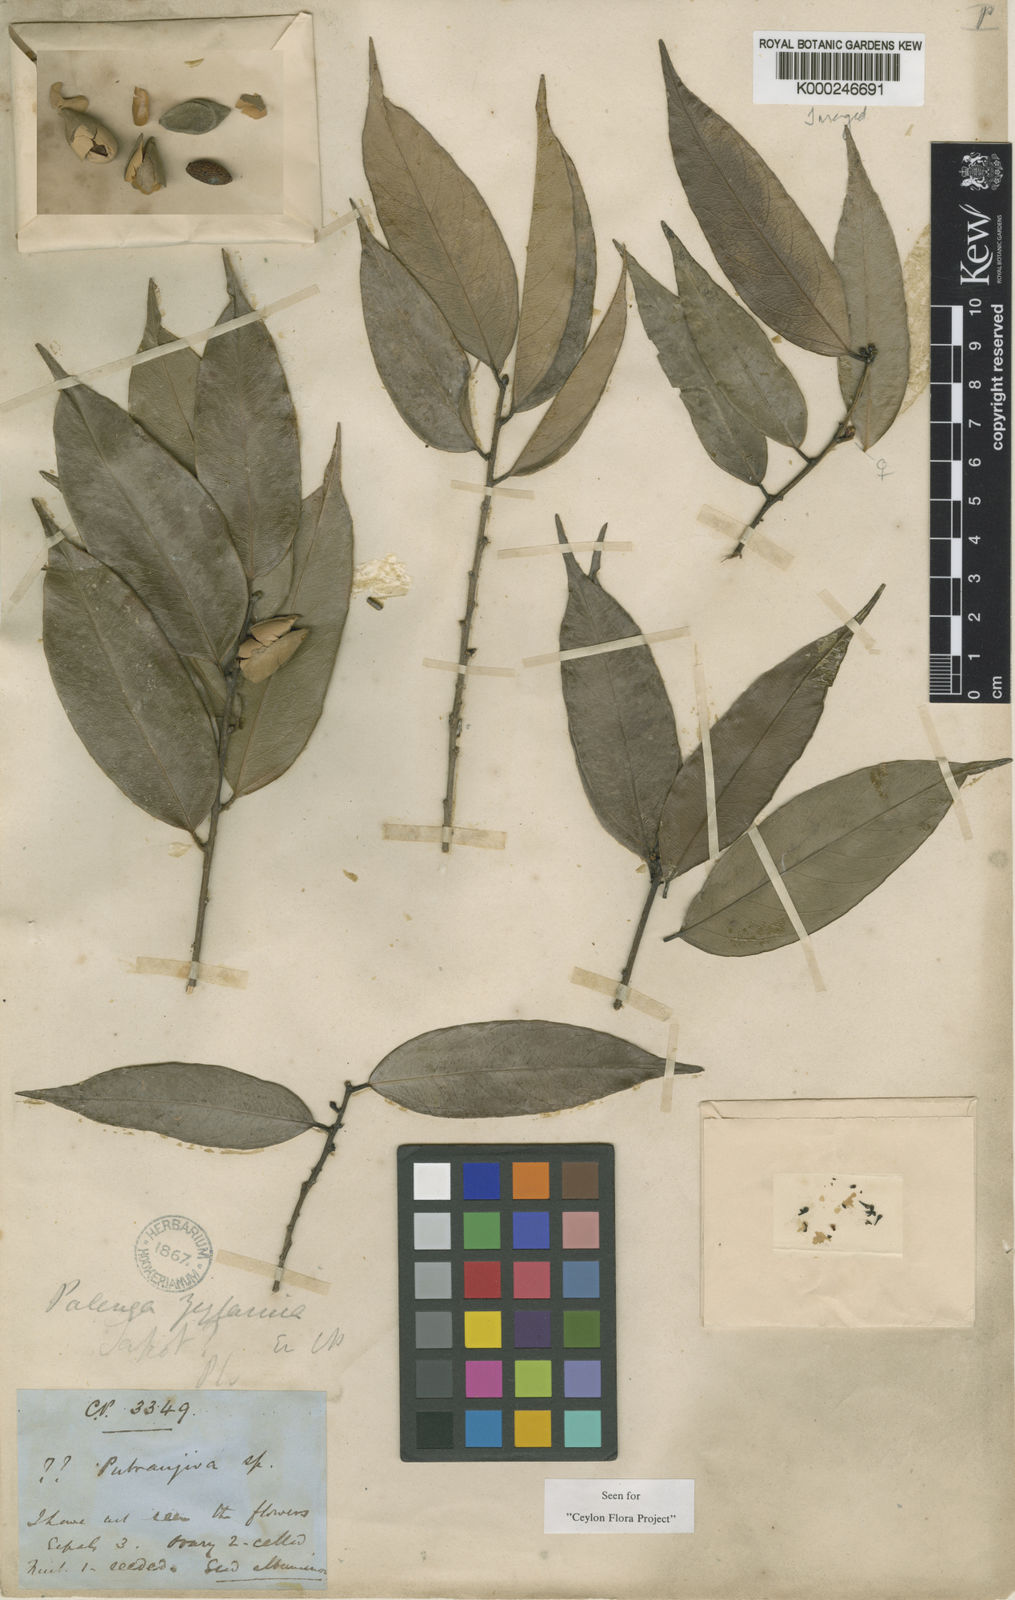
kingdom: Plantae
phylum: Tracheophyta
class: Magnoliopsida
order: Malpighiales
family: Putranjivaceae
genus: Putranjiva
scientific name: Putranjiva zeylanica
